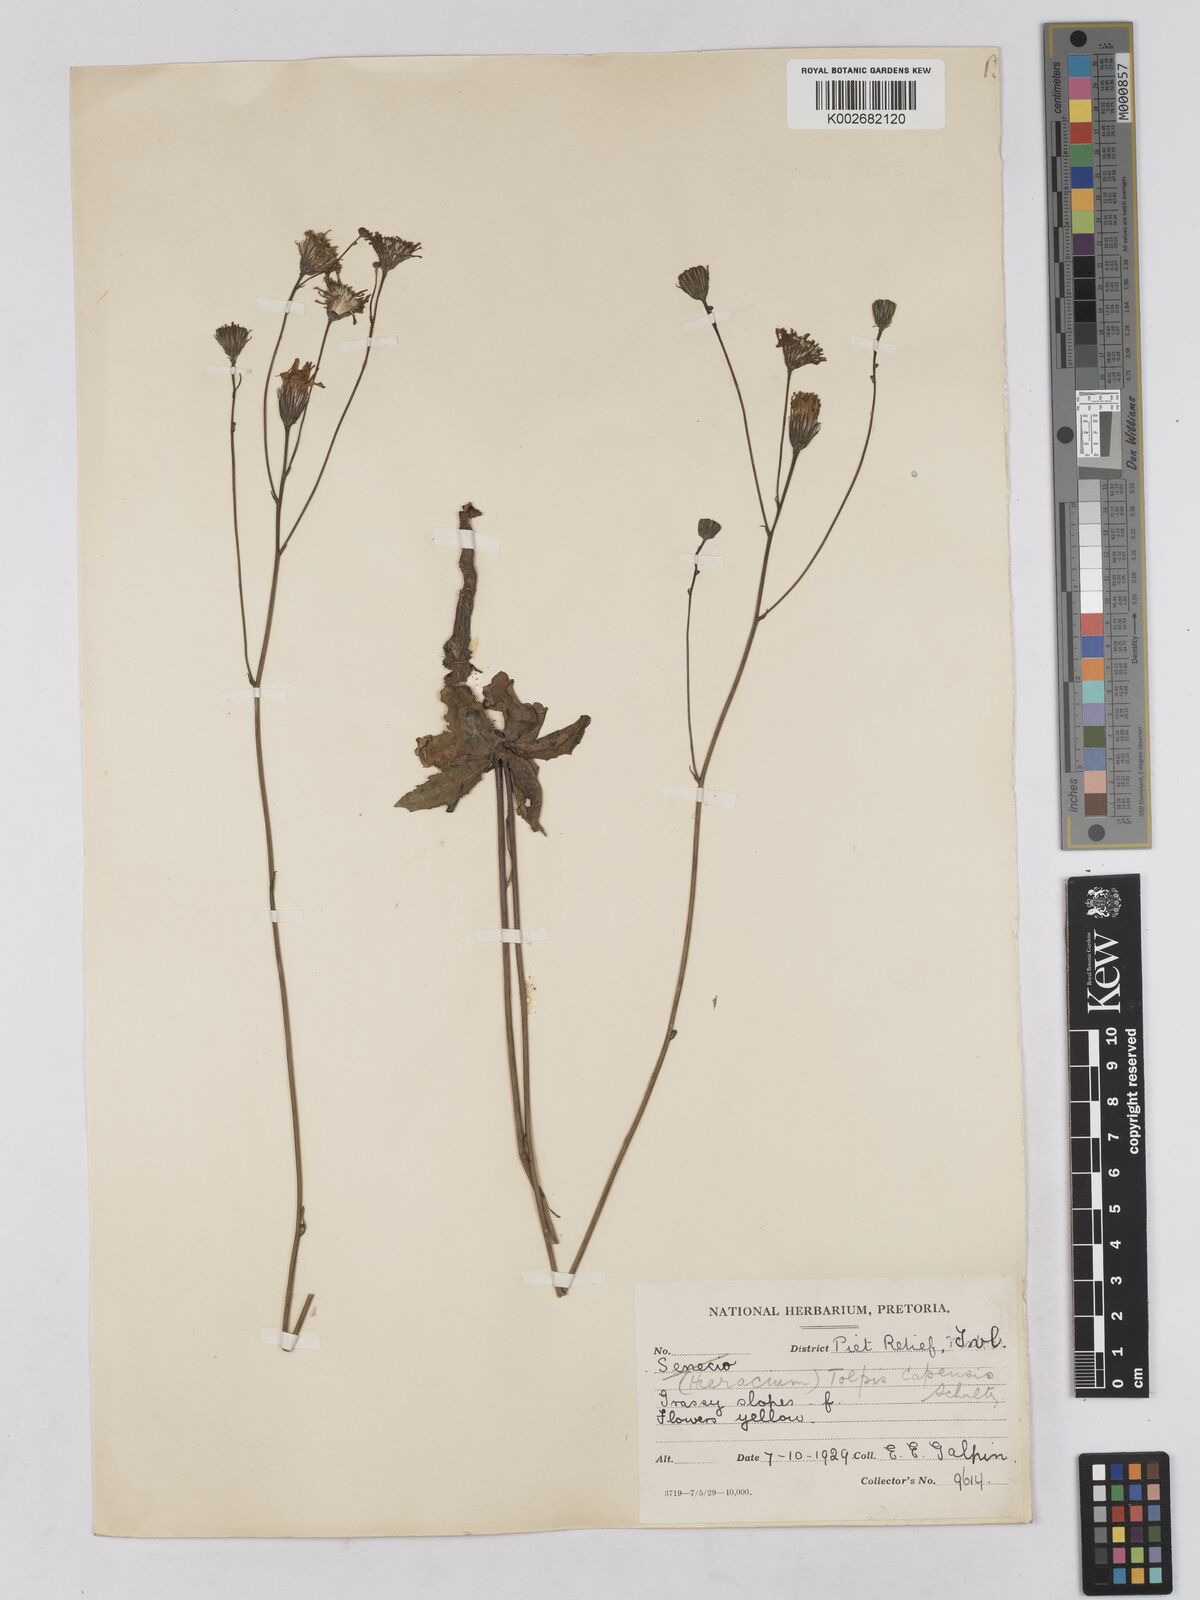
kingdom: Plantae
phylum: Tracheophyta
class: Magnoliopsida
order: Asterales
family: Asteraceae
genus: Tolpis
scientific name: Tolpis capensis
